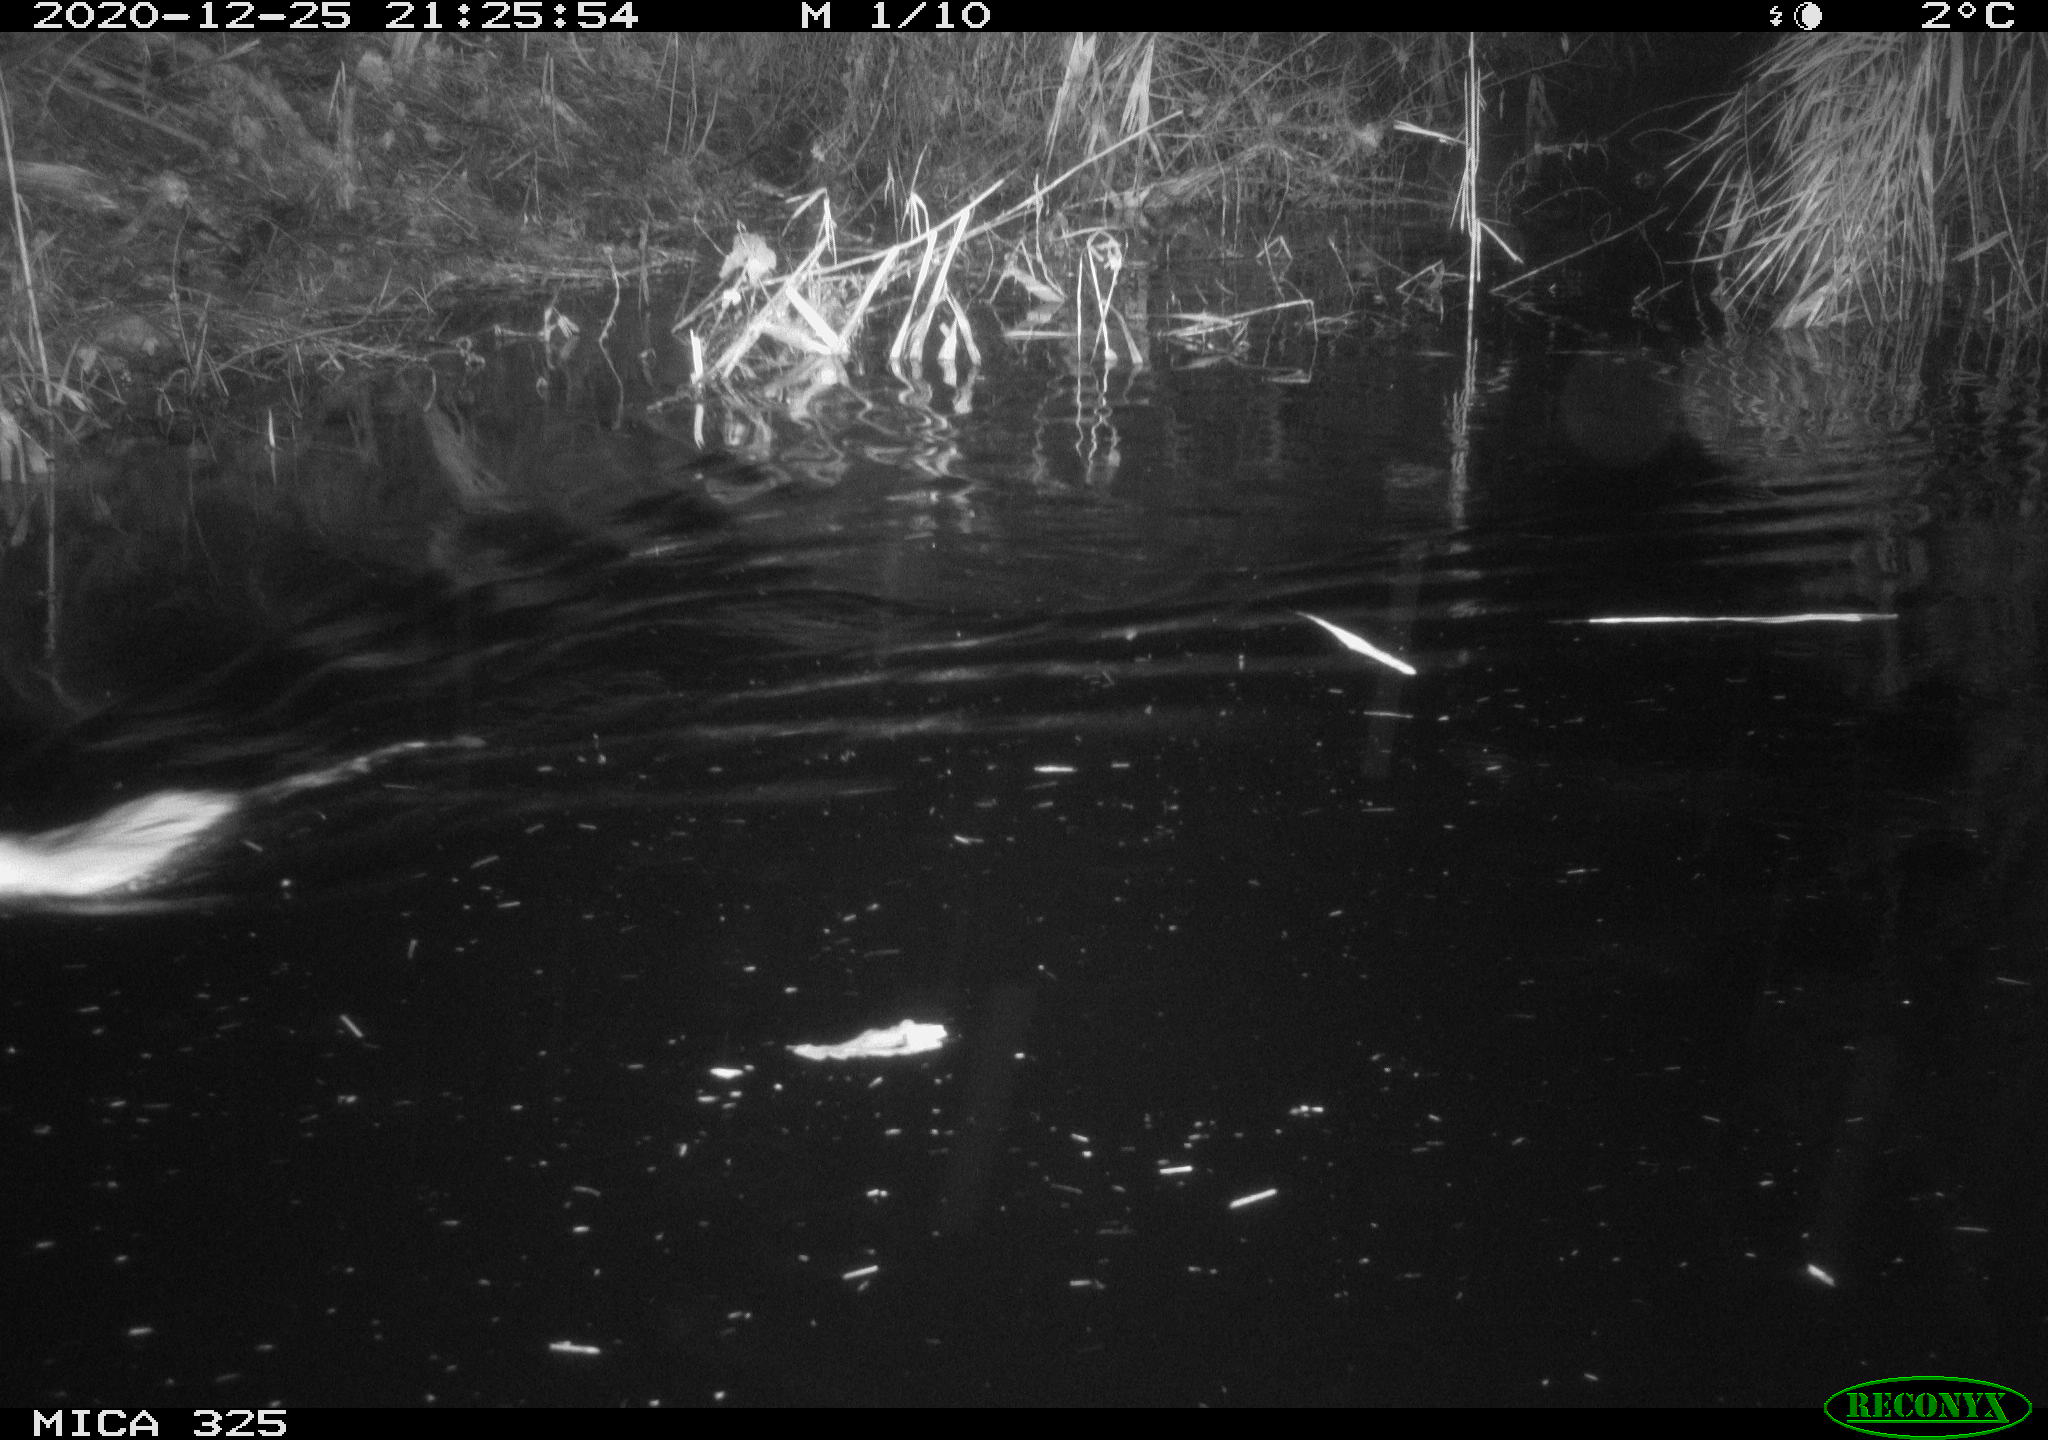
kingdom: Animalia
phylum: Chordata
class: Mammalia
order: Rodentia
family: Cricetidae
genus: Ondatra
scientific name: Ondatra zibethicus
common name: Muskrat
